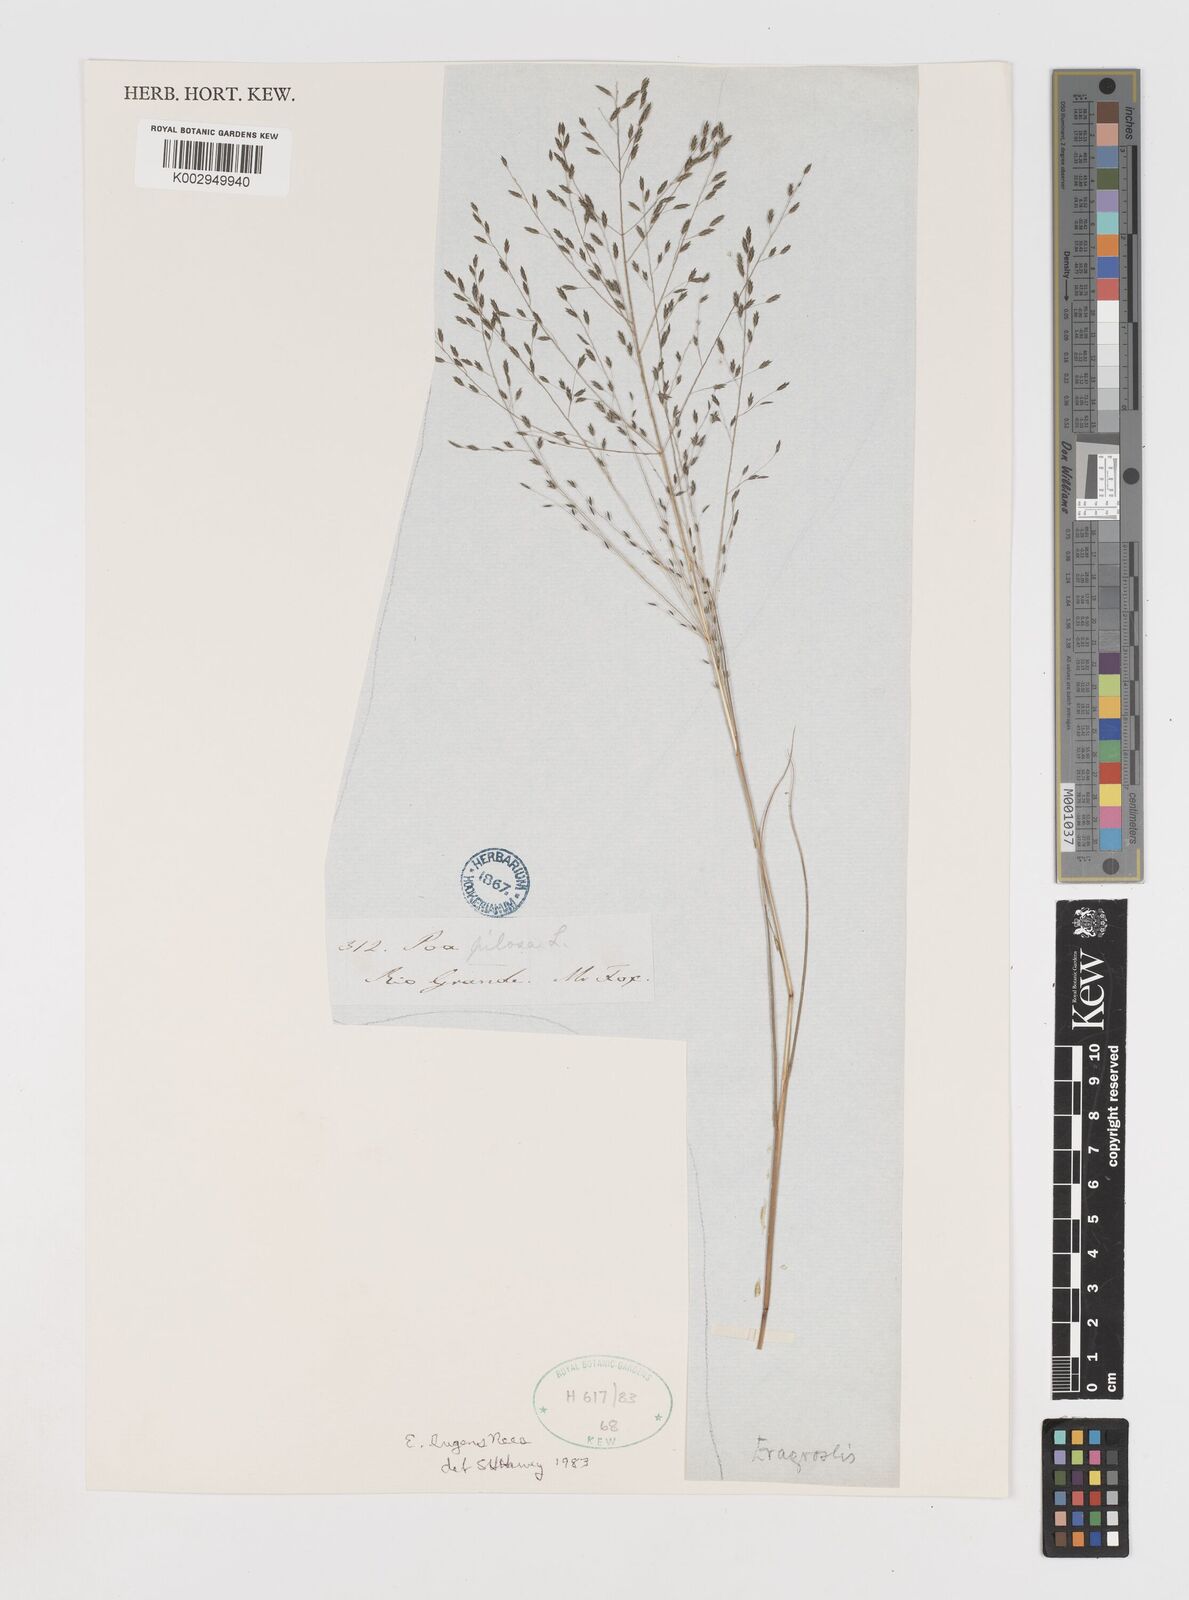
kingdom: Plantae
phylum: Tracheophyta
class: Liliopsida
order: Poales
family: Poaceae
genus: Eragrostis
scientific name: Eragrostis lugens
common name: Mourning love grass
